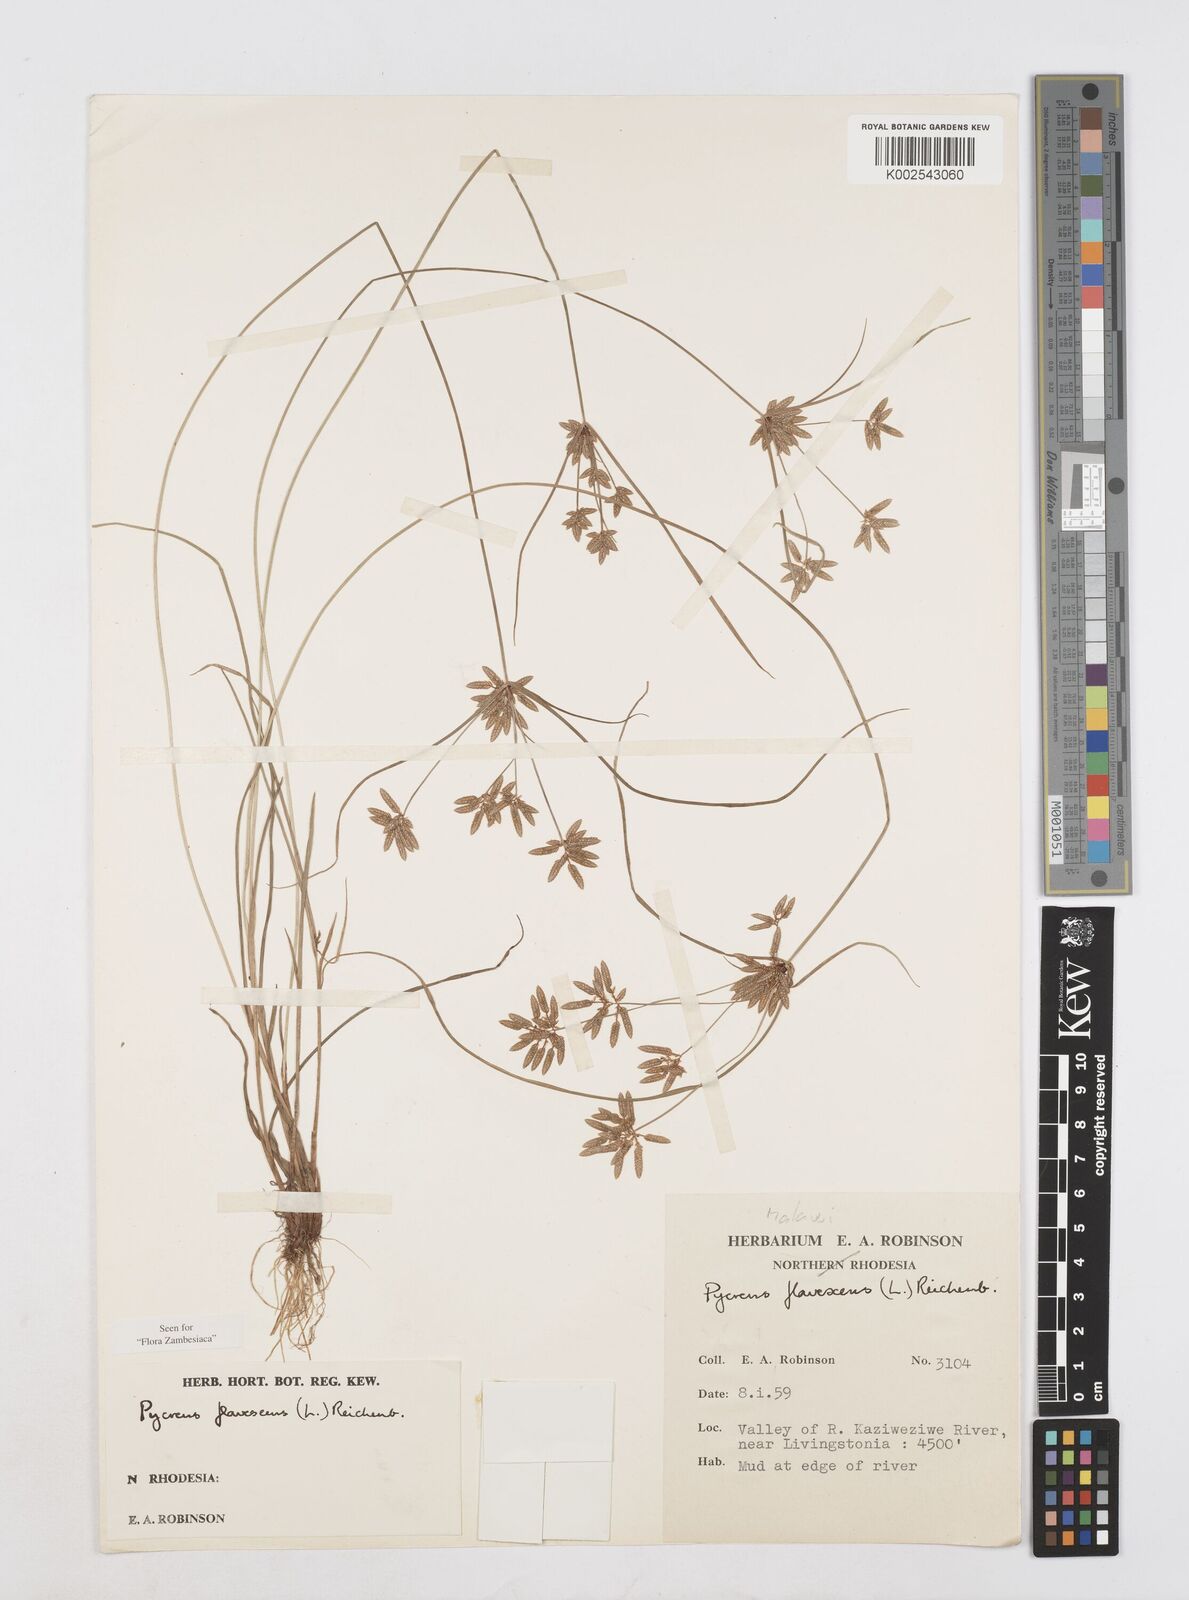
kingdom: Plantae
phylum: Tracheophyta
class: Liliopsida
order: Poales
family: Cyperaceae
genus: Cyperus
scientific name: Cyperus flavescens
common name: Yellow galingale
